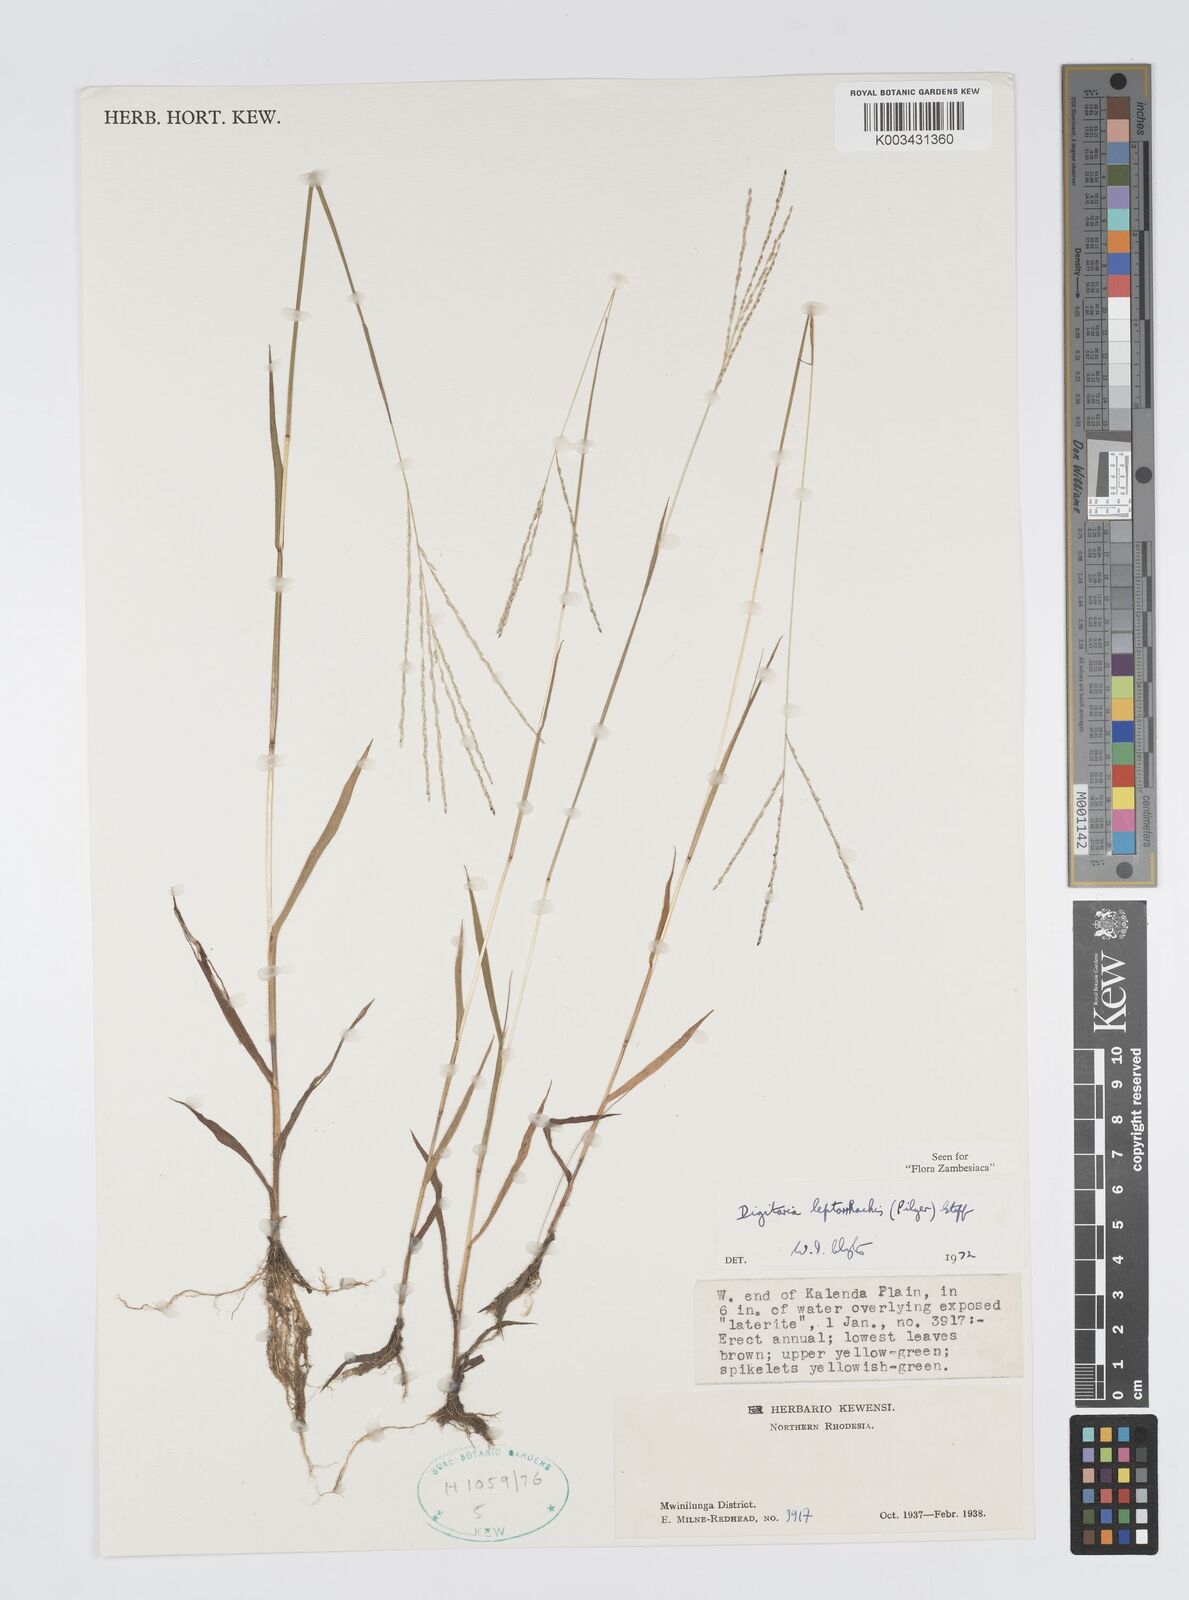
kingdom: Plantae
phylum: Tracheophyta
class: Liliopsida
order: Poales
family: Poaceae
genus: Digitaria
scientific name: Digitaria leptorhachis
